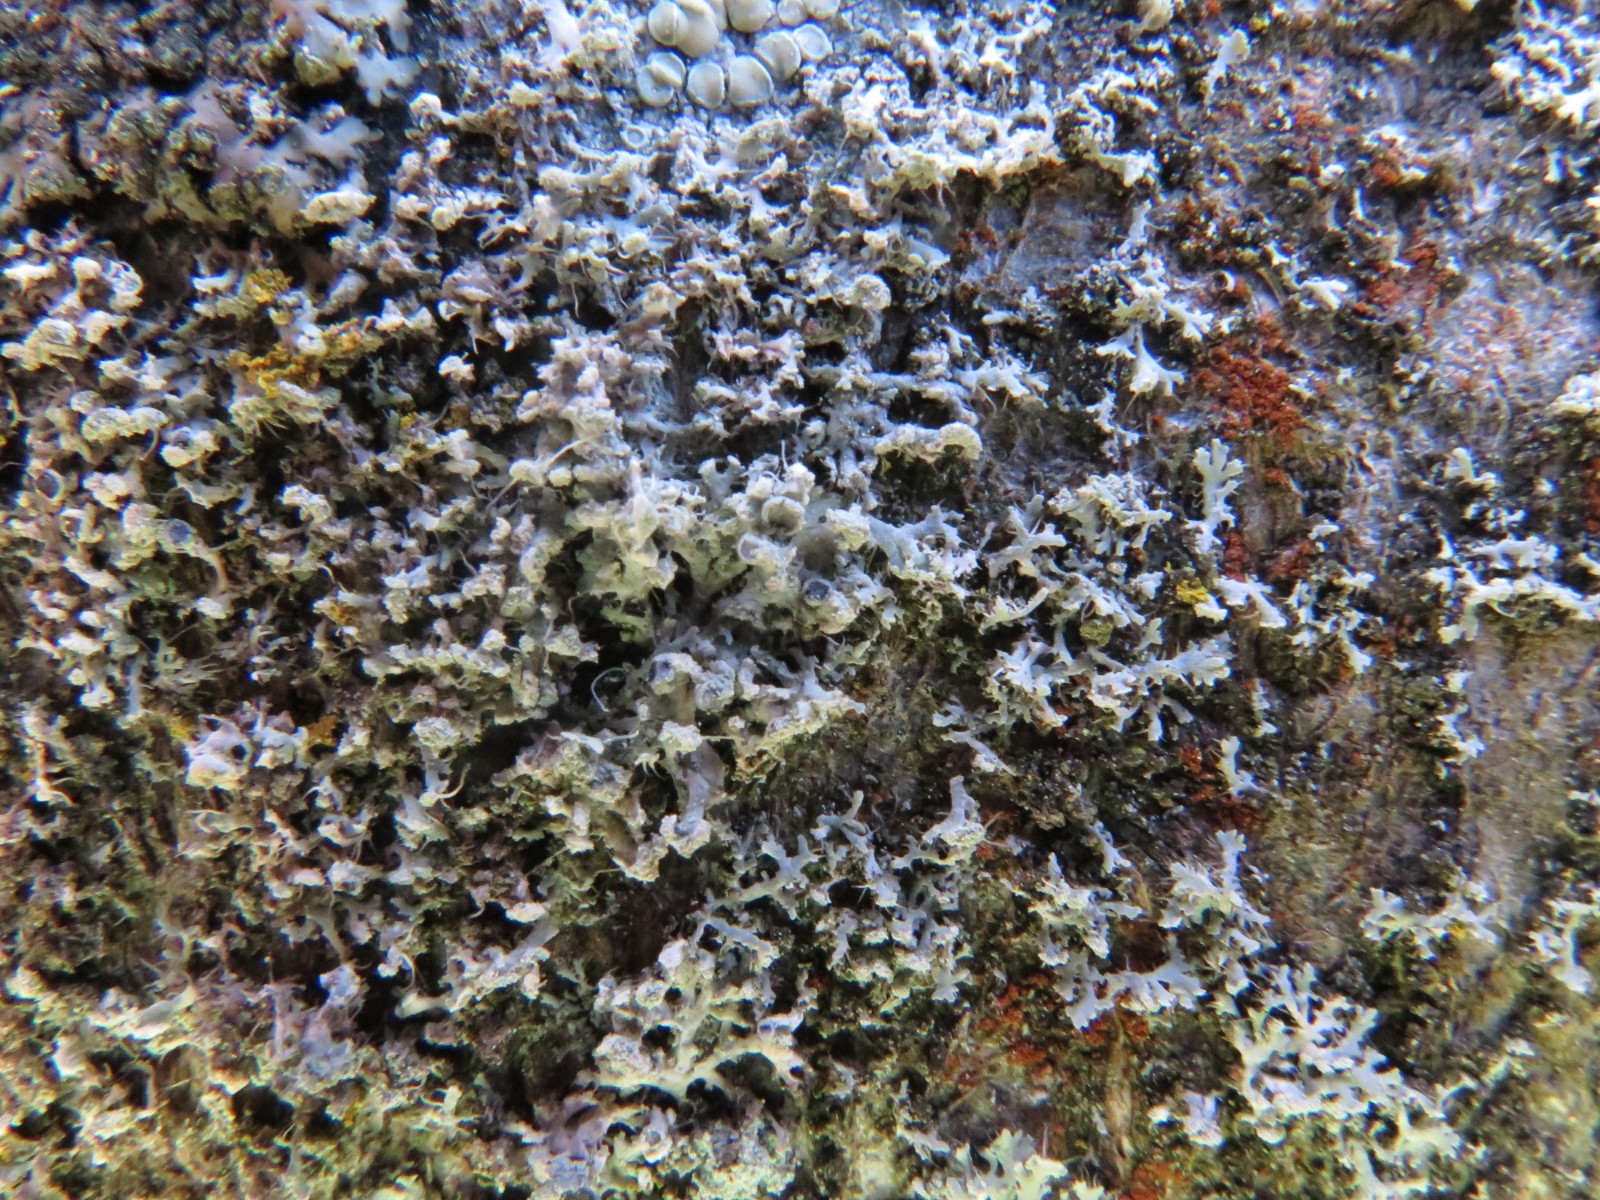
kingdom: Fungi
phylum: Ascomycota
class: Lecanoromycetes
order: Caliciales
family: Physciaceae
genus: Physcia
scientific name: Physcia tenella
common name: spæd rosetlav
